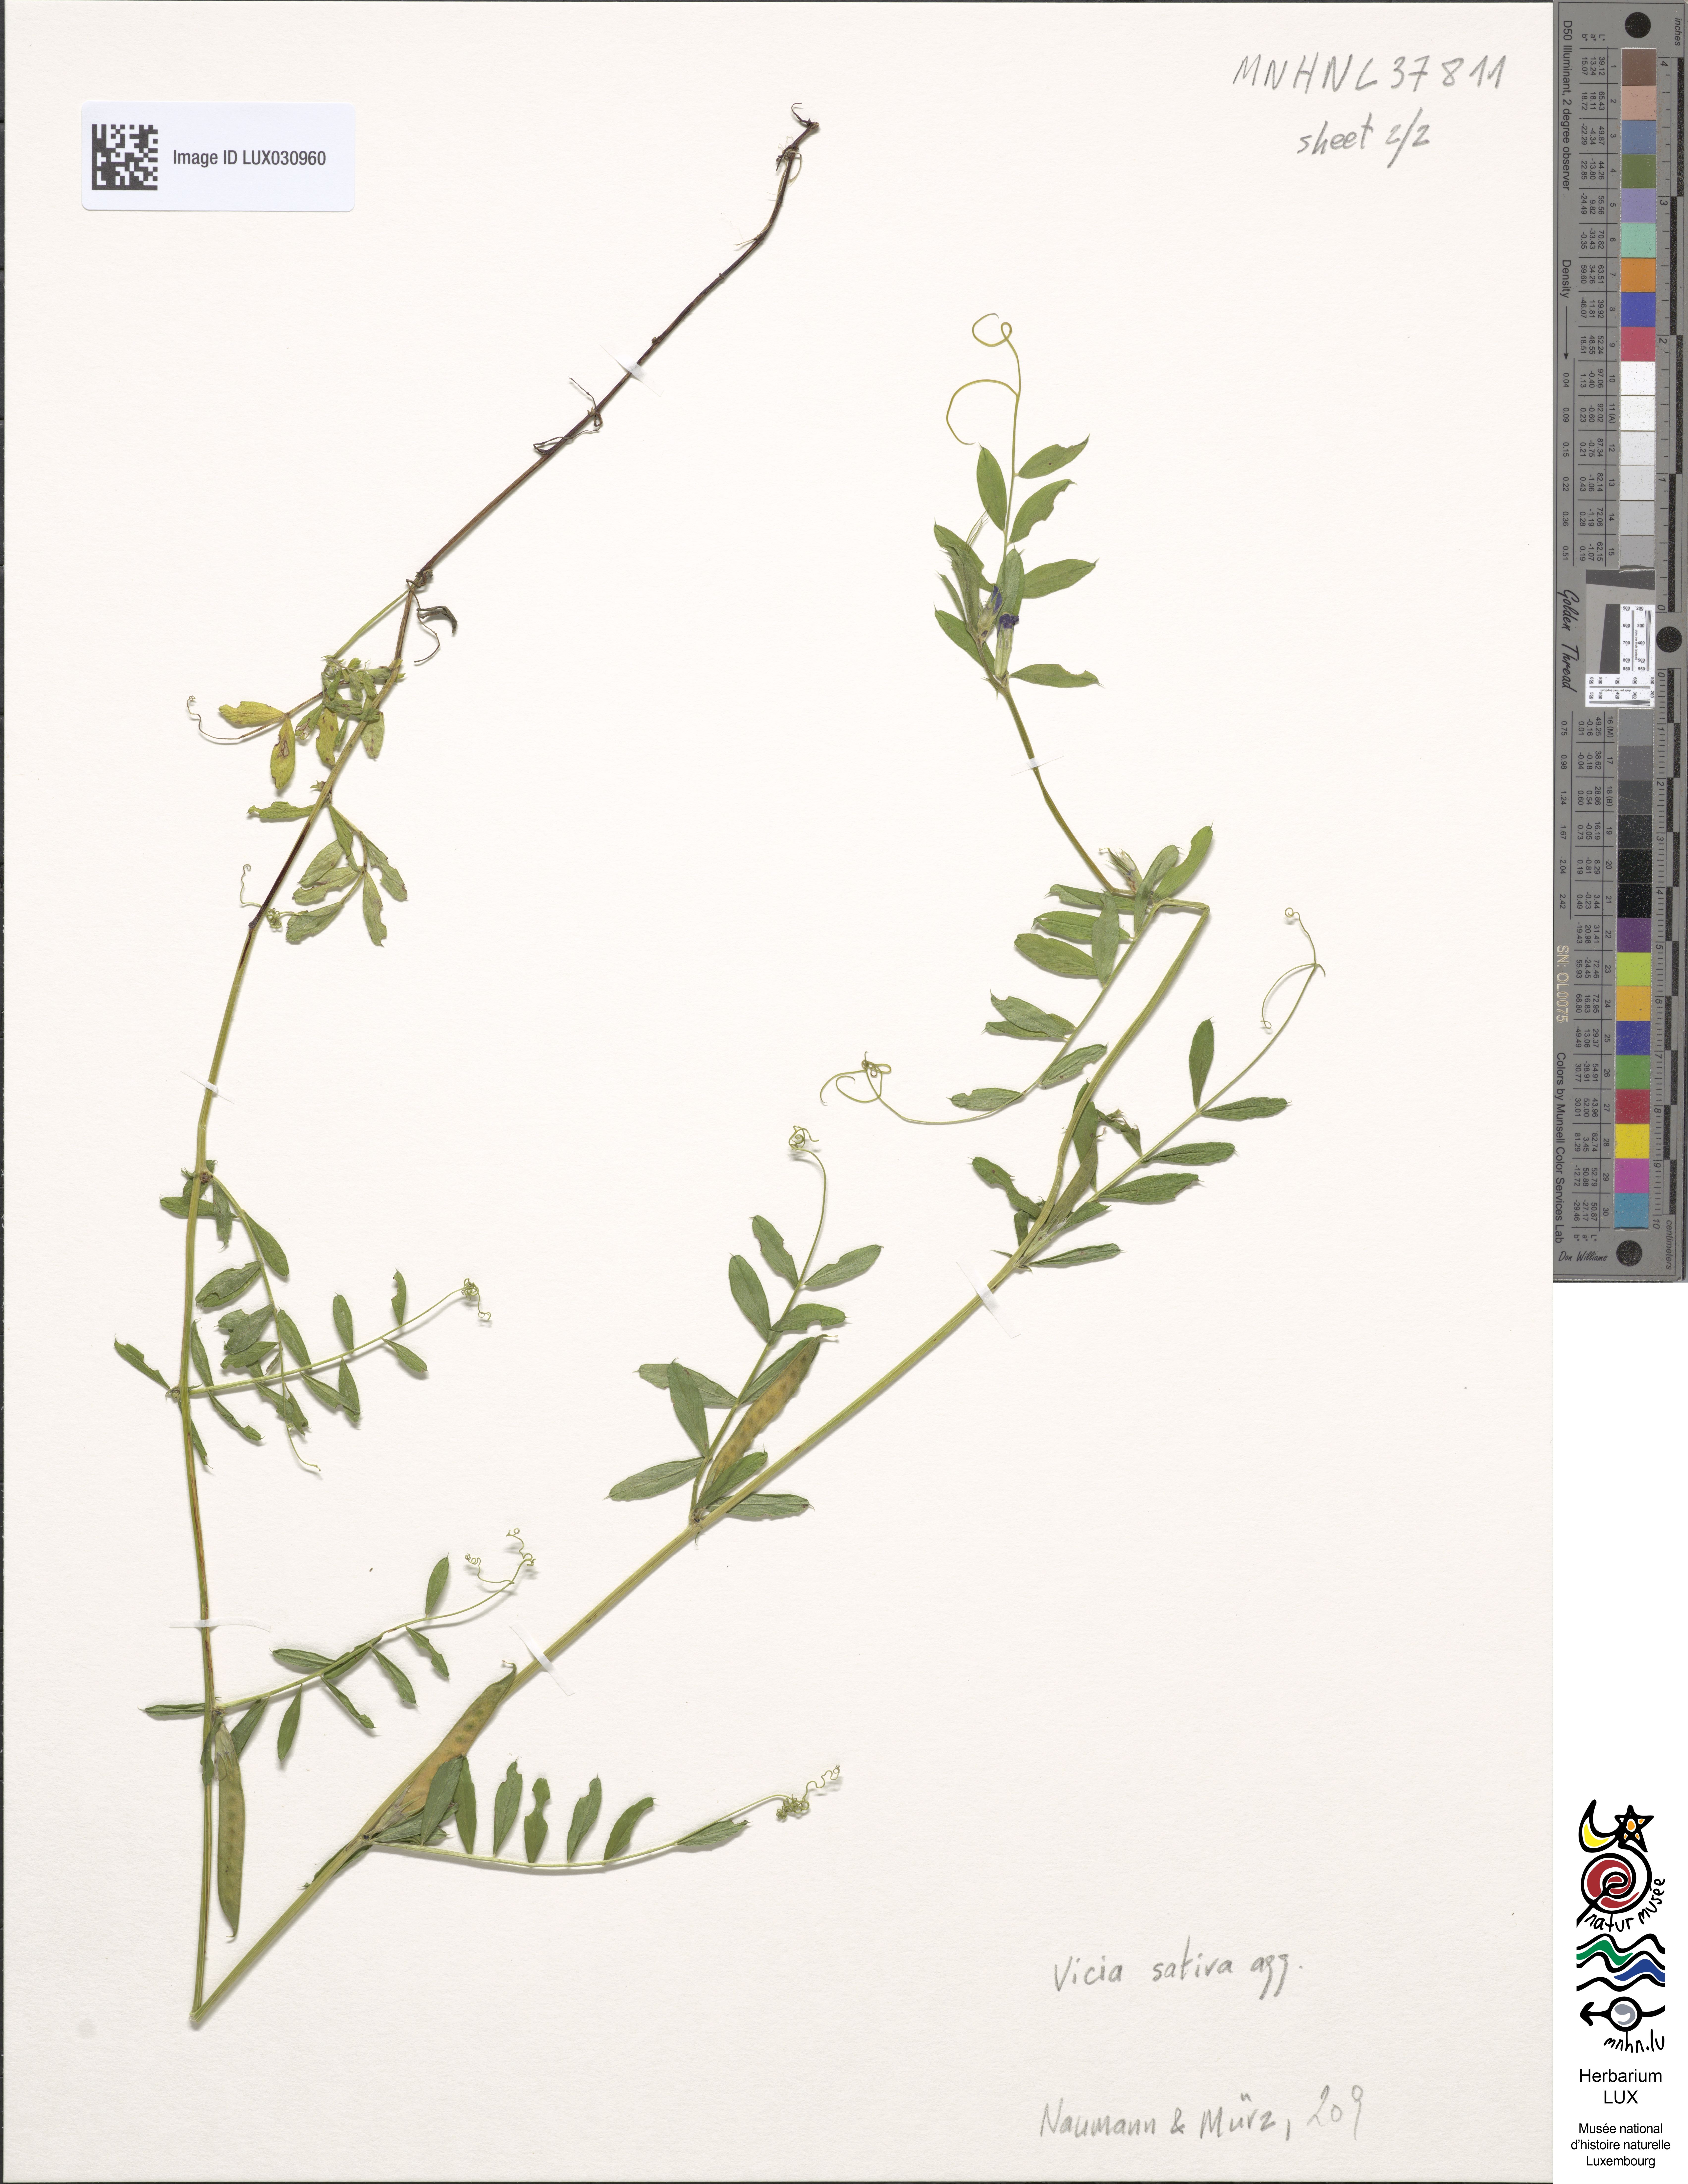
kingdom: Plantae
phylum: Tracheophyta
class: Magnoliopsida
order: Fabales
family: Fabaceae
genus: Vicia
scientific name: Vicia
